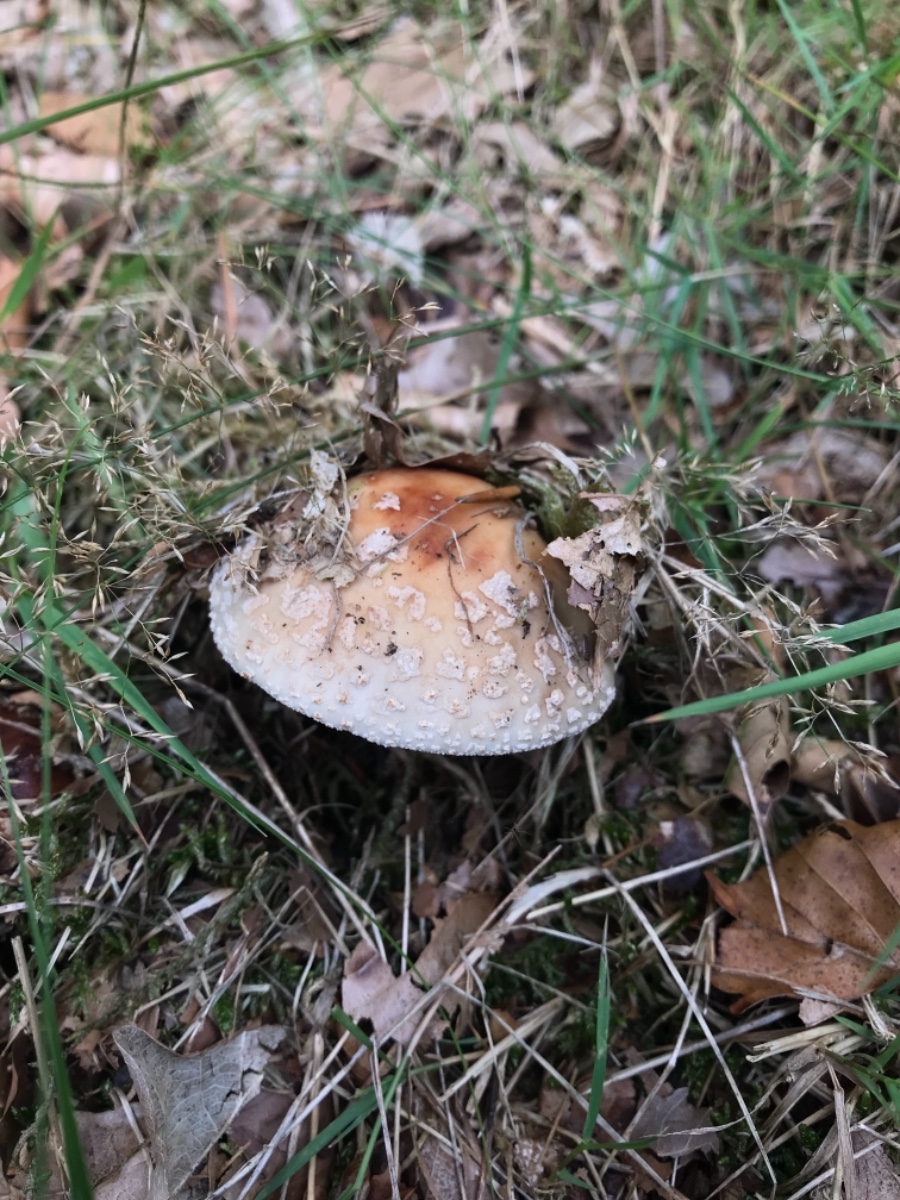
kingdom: Fungi
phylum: Basidiomycota
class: Agaricomycetes
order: Agaricales
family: Amanitaceae
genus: Amanita
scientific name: Amanita rubescens
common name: rødmende fluesvamp
